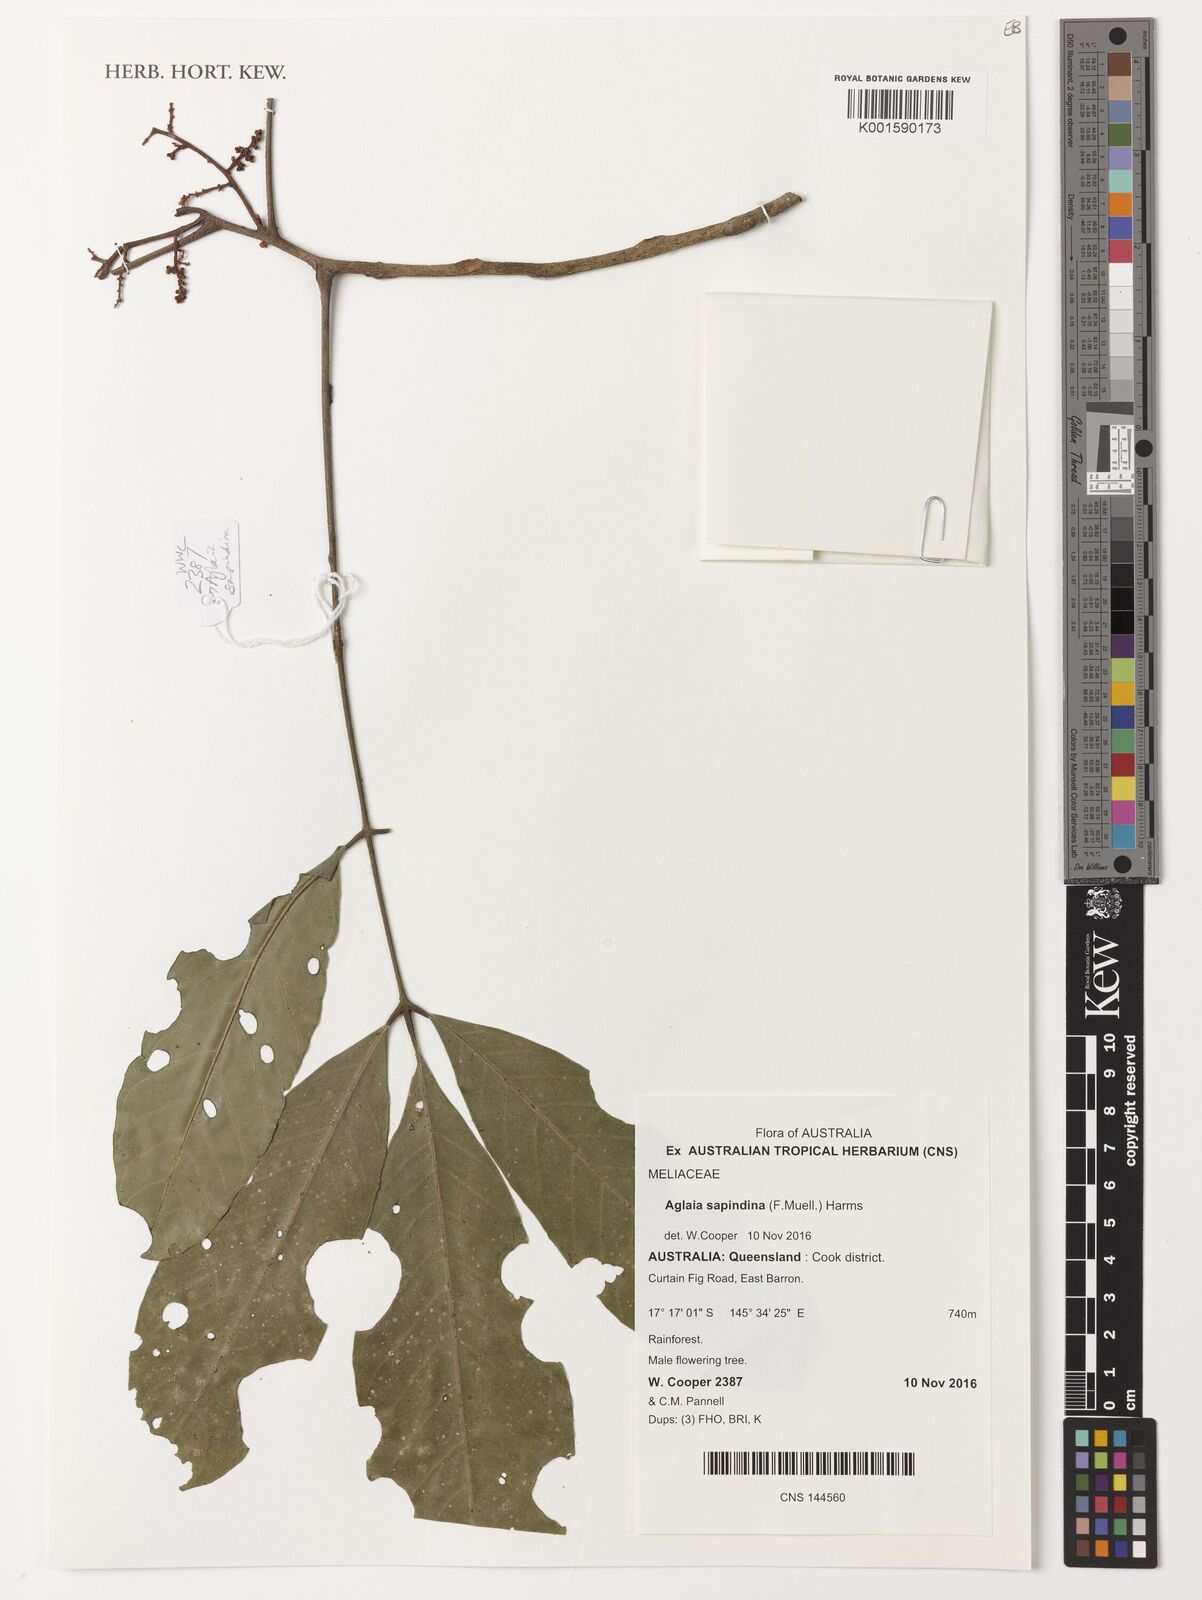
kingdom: Plantae
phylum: Tracheophyta
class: Magnoliopsida
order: Sapindales
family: Meliaceae
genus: Aglaia
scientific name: Aglaia sapindina
